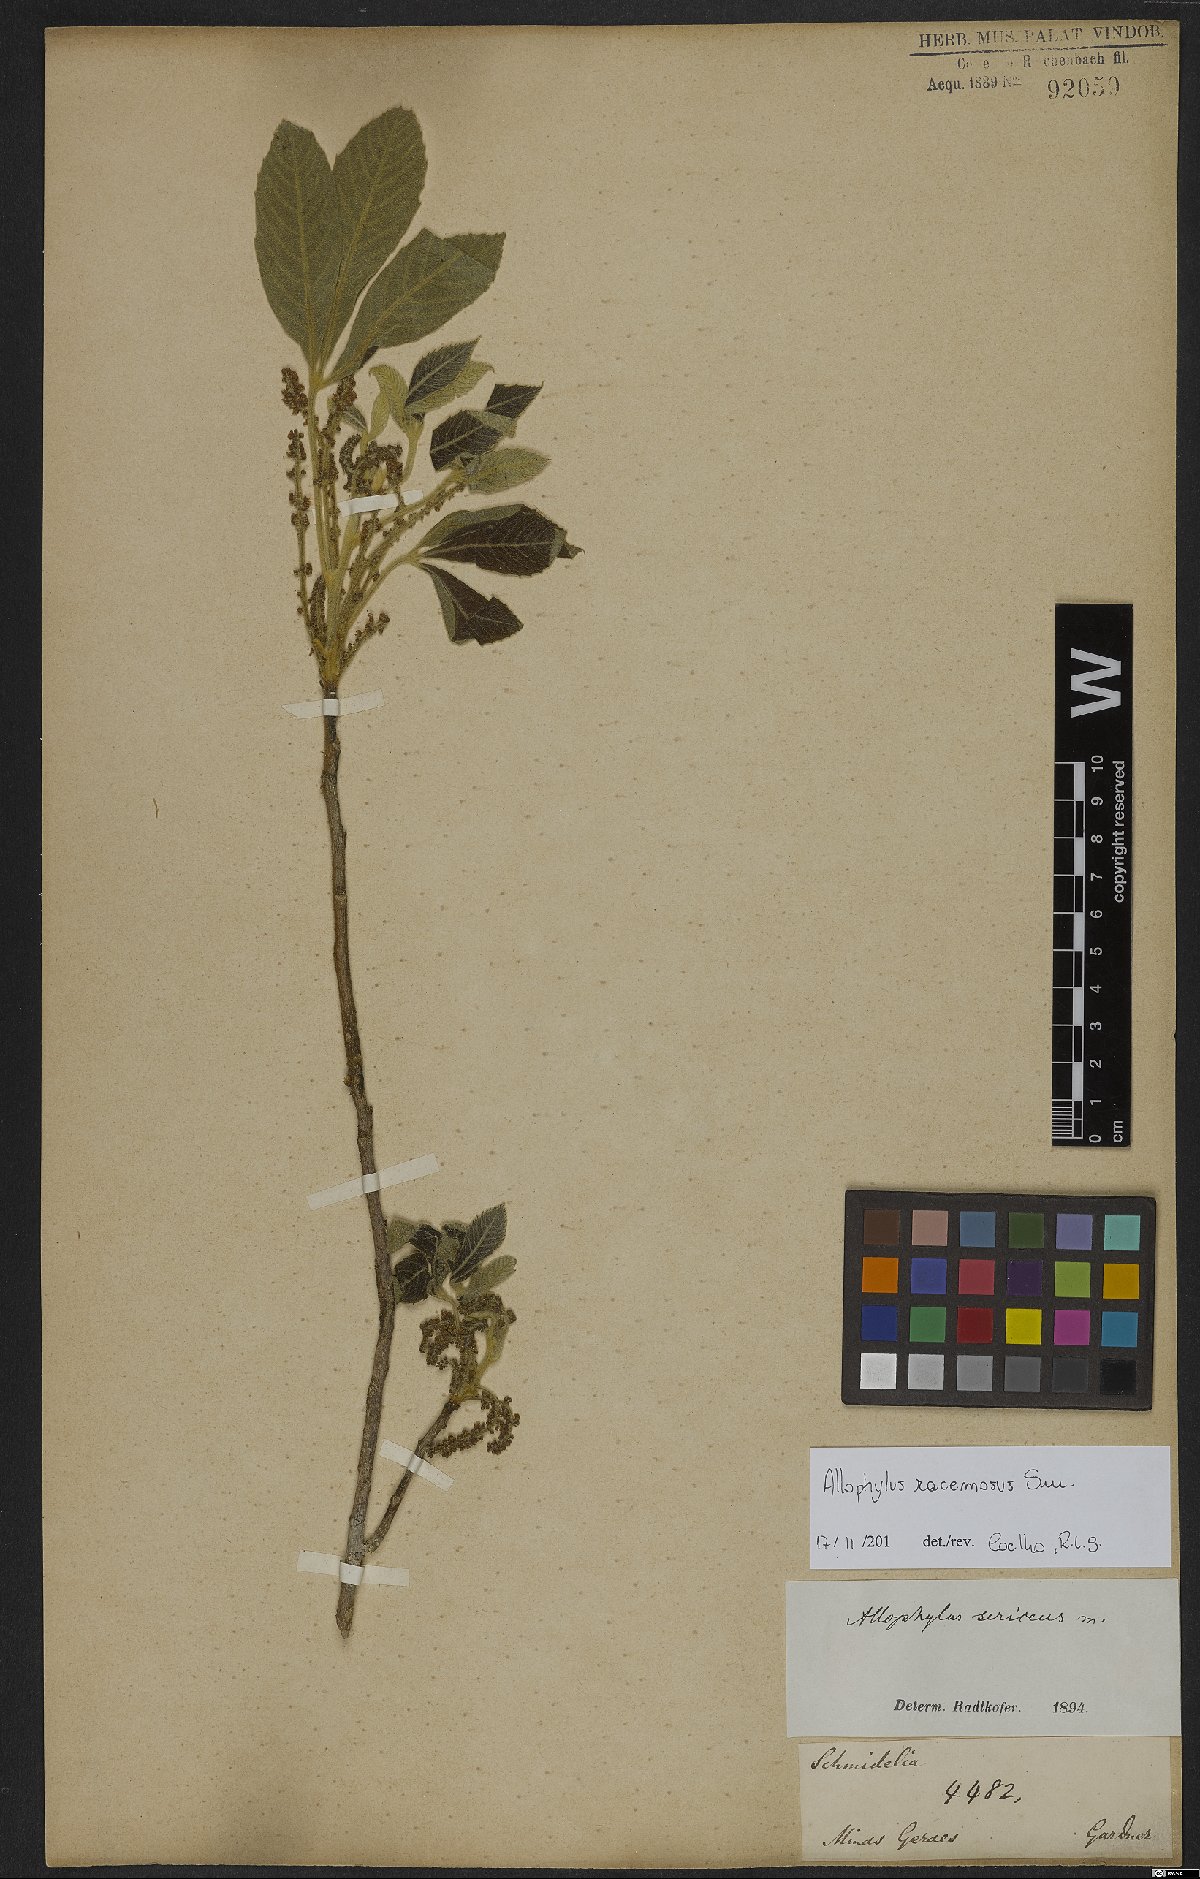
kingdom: Plantae
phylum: Tracheophyta
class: Magnoliopsida
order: Sapindales
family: Sapindaceae
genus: Allophylus
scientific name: Allophylus racemosus
